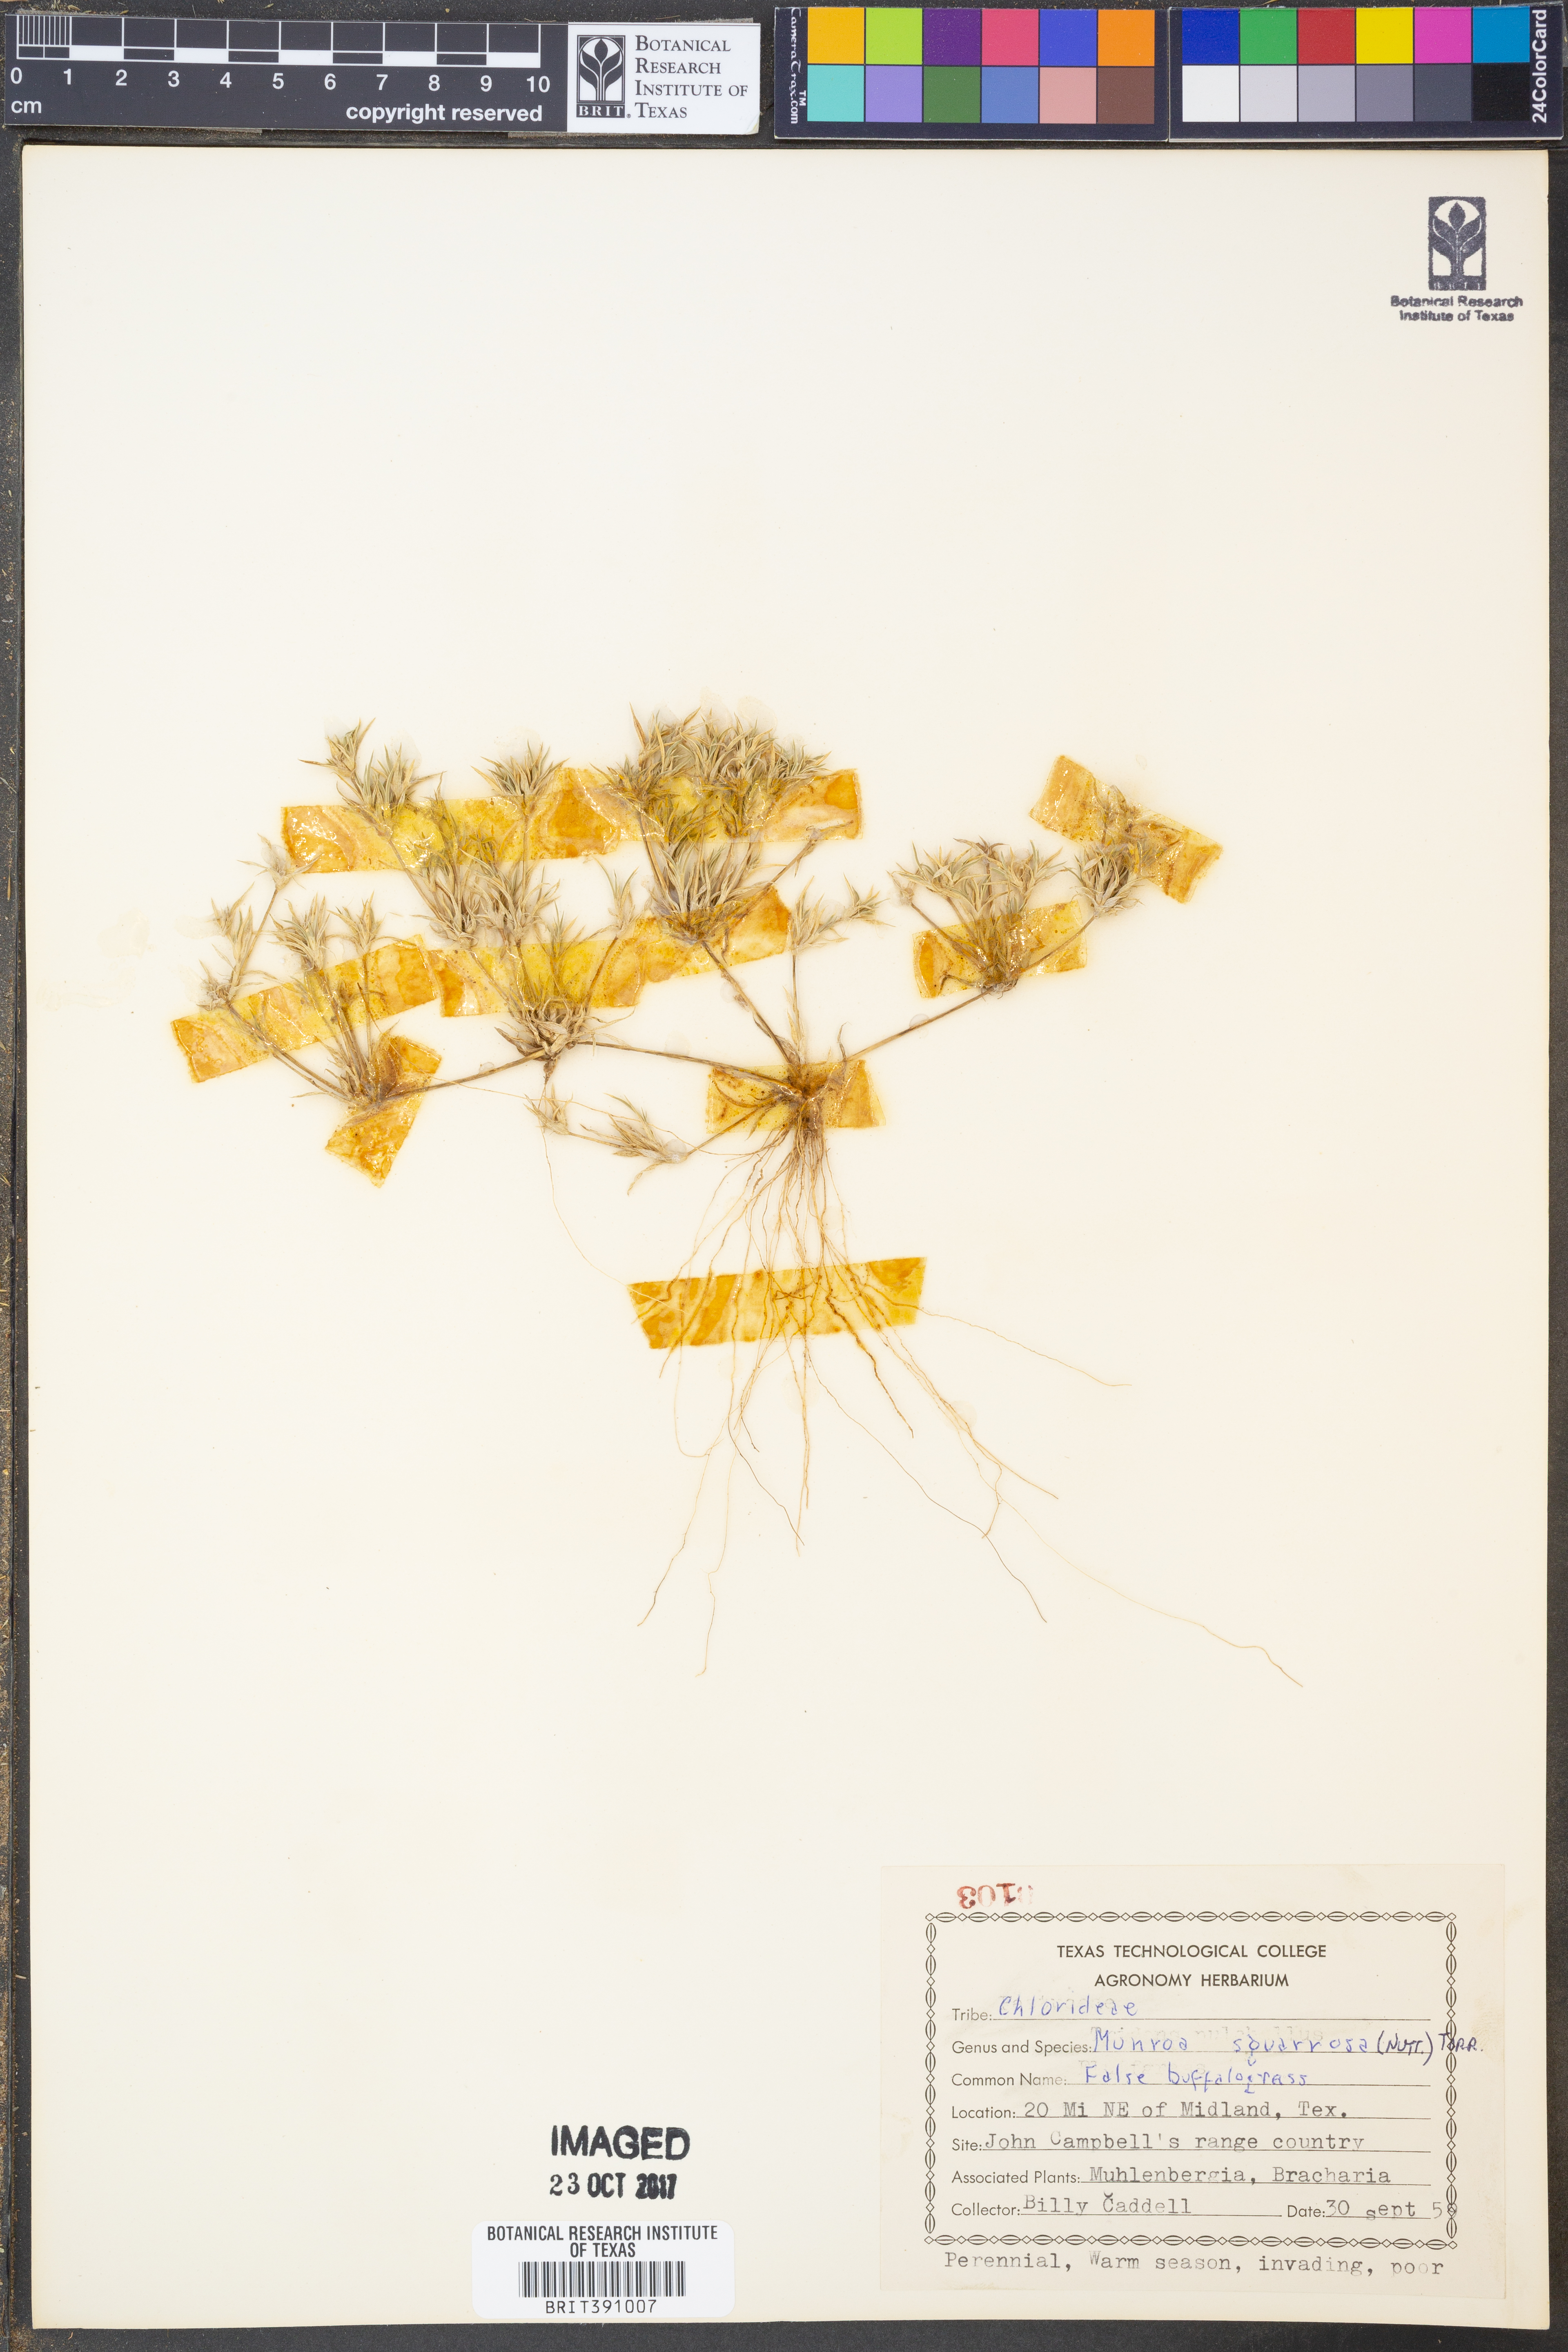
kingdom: Plantae
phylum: Tracheophyta
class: Liliopsida
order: Poales
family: Poaceae
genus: Munroa
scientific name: Munroa squarrosa
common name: False buffalo grass
